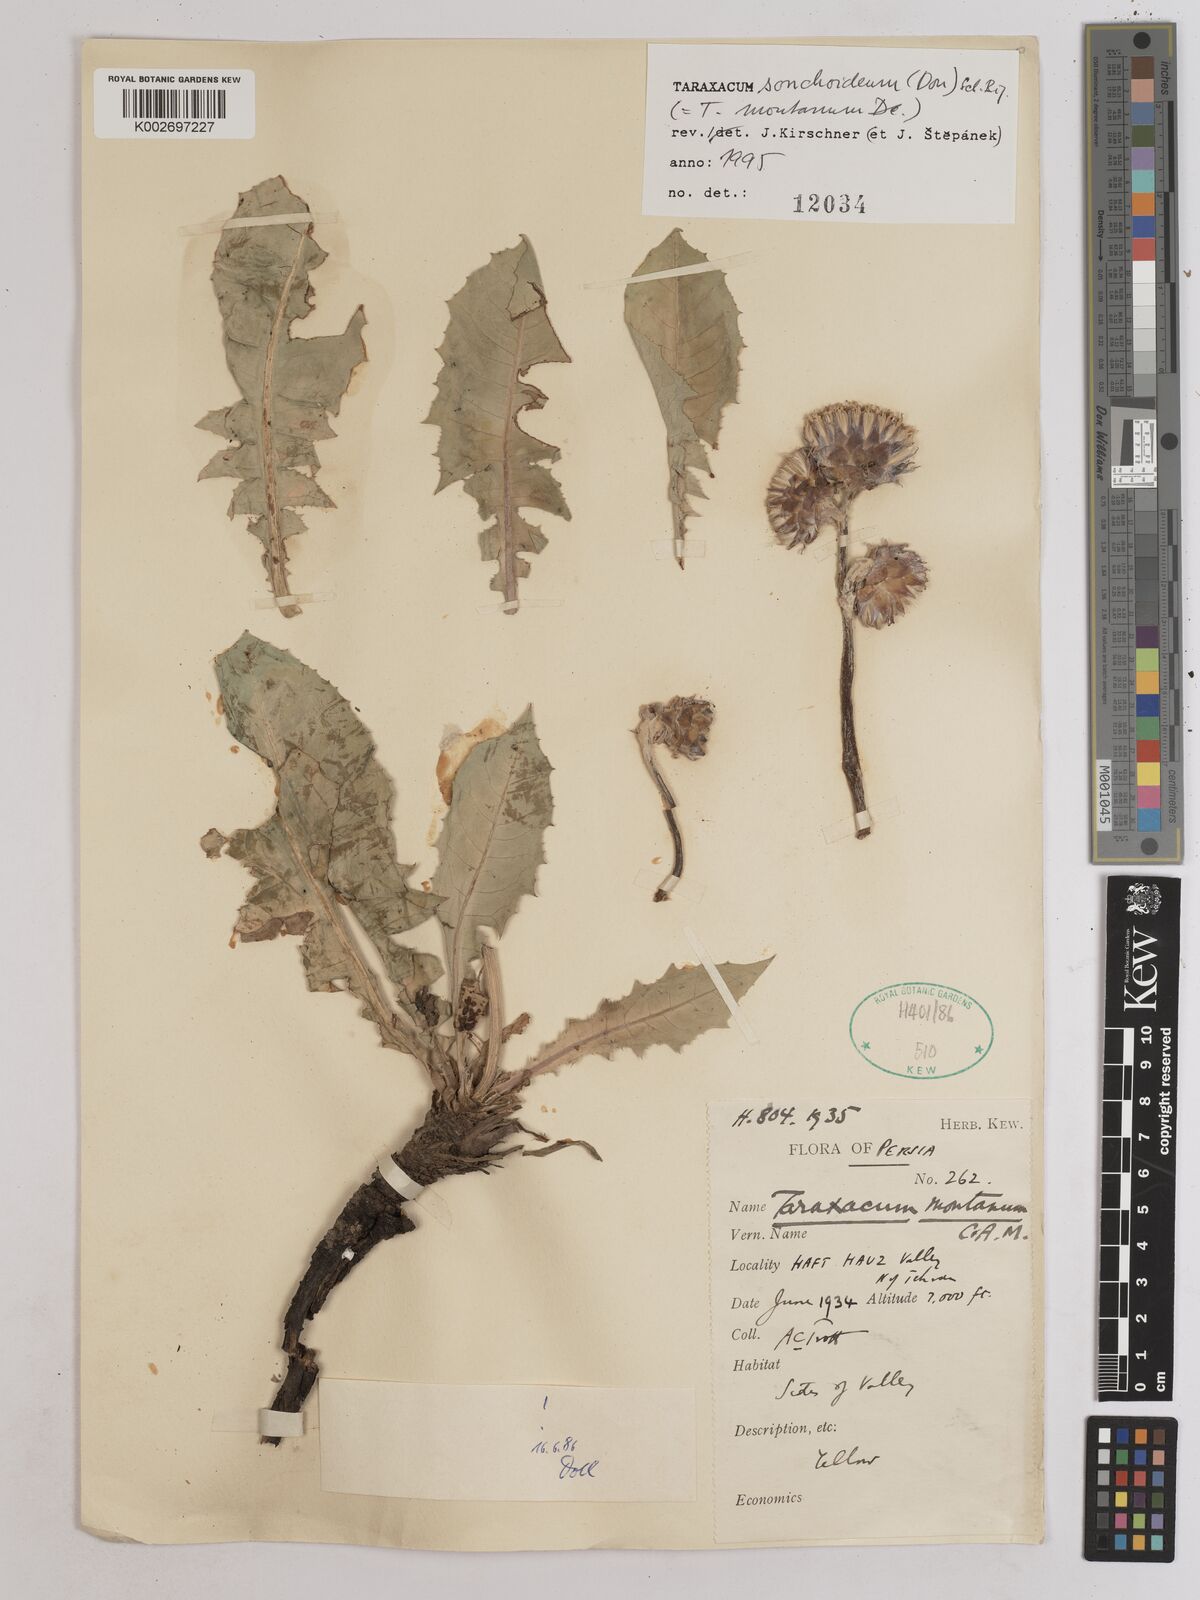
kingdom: Plantae
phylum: Tracheophyta
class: Magnoliopsida
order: Asterales
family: Asteraceae
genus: Taraxacum
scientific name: Taraxacum sonchoides
